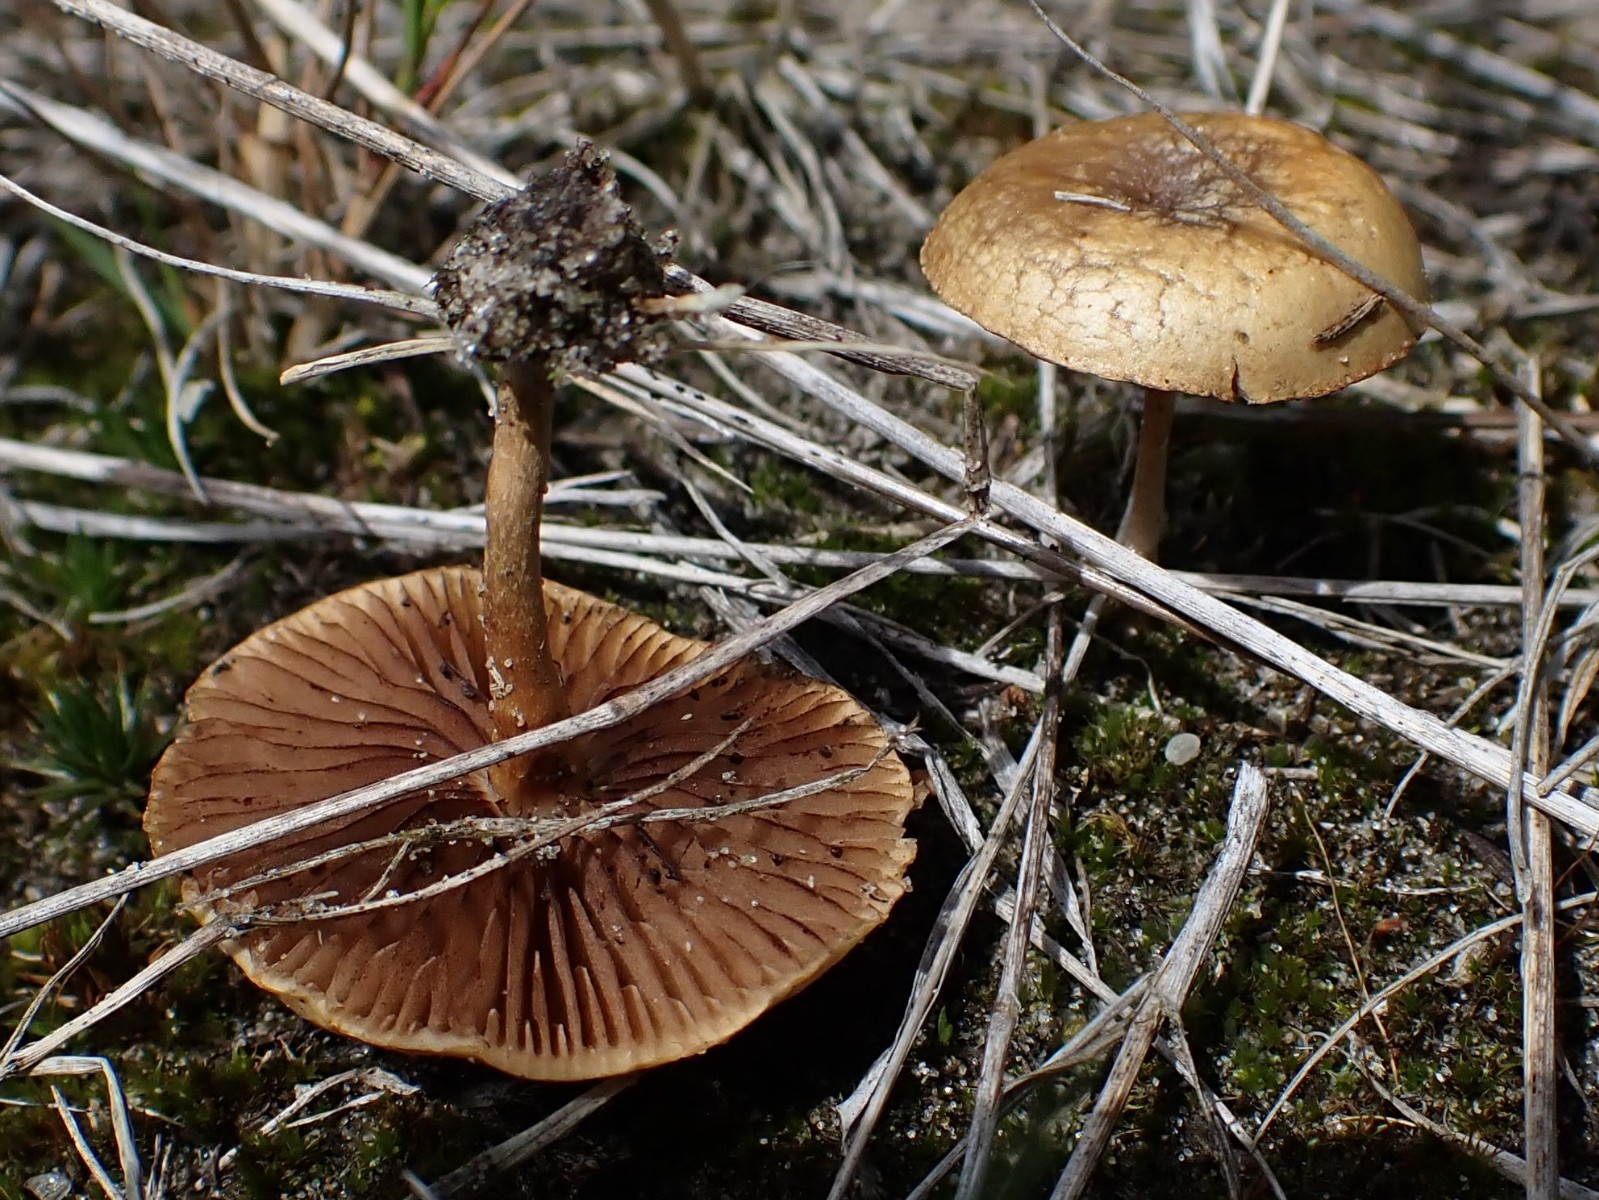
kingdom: Fungi
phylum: Basidiomycota
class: Agaricomycetes
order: Agaricales
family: Strophariaceae
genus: Agrocybe
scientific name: Agrocybe
